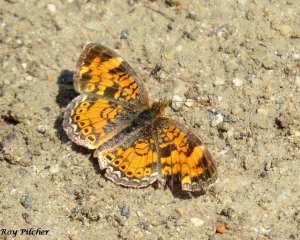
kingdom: Animalia
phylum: Arthropoda
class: Insecta
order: Lepidoptera
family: Nymphalidae
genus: Phyciodes
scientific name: Phyciodes tharos
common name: Pearl Crescent
